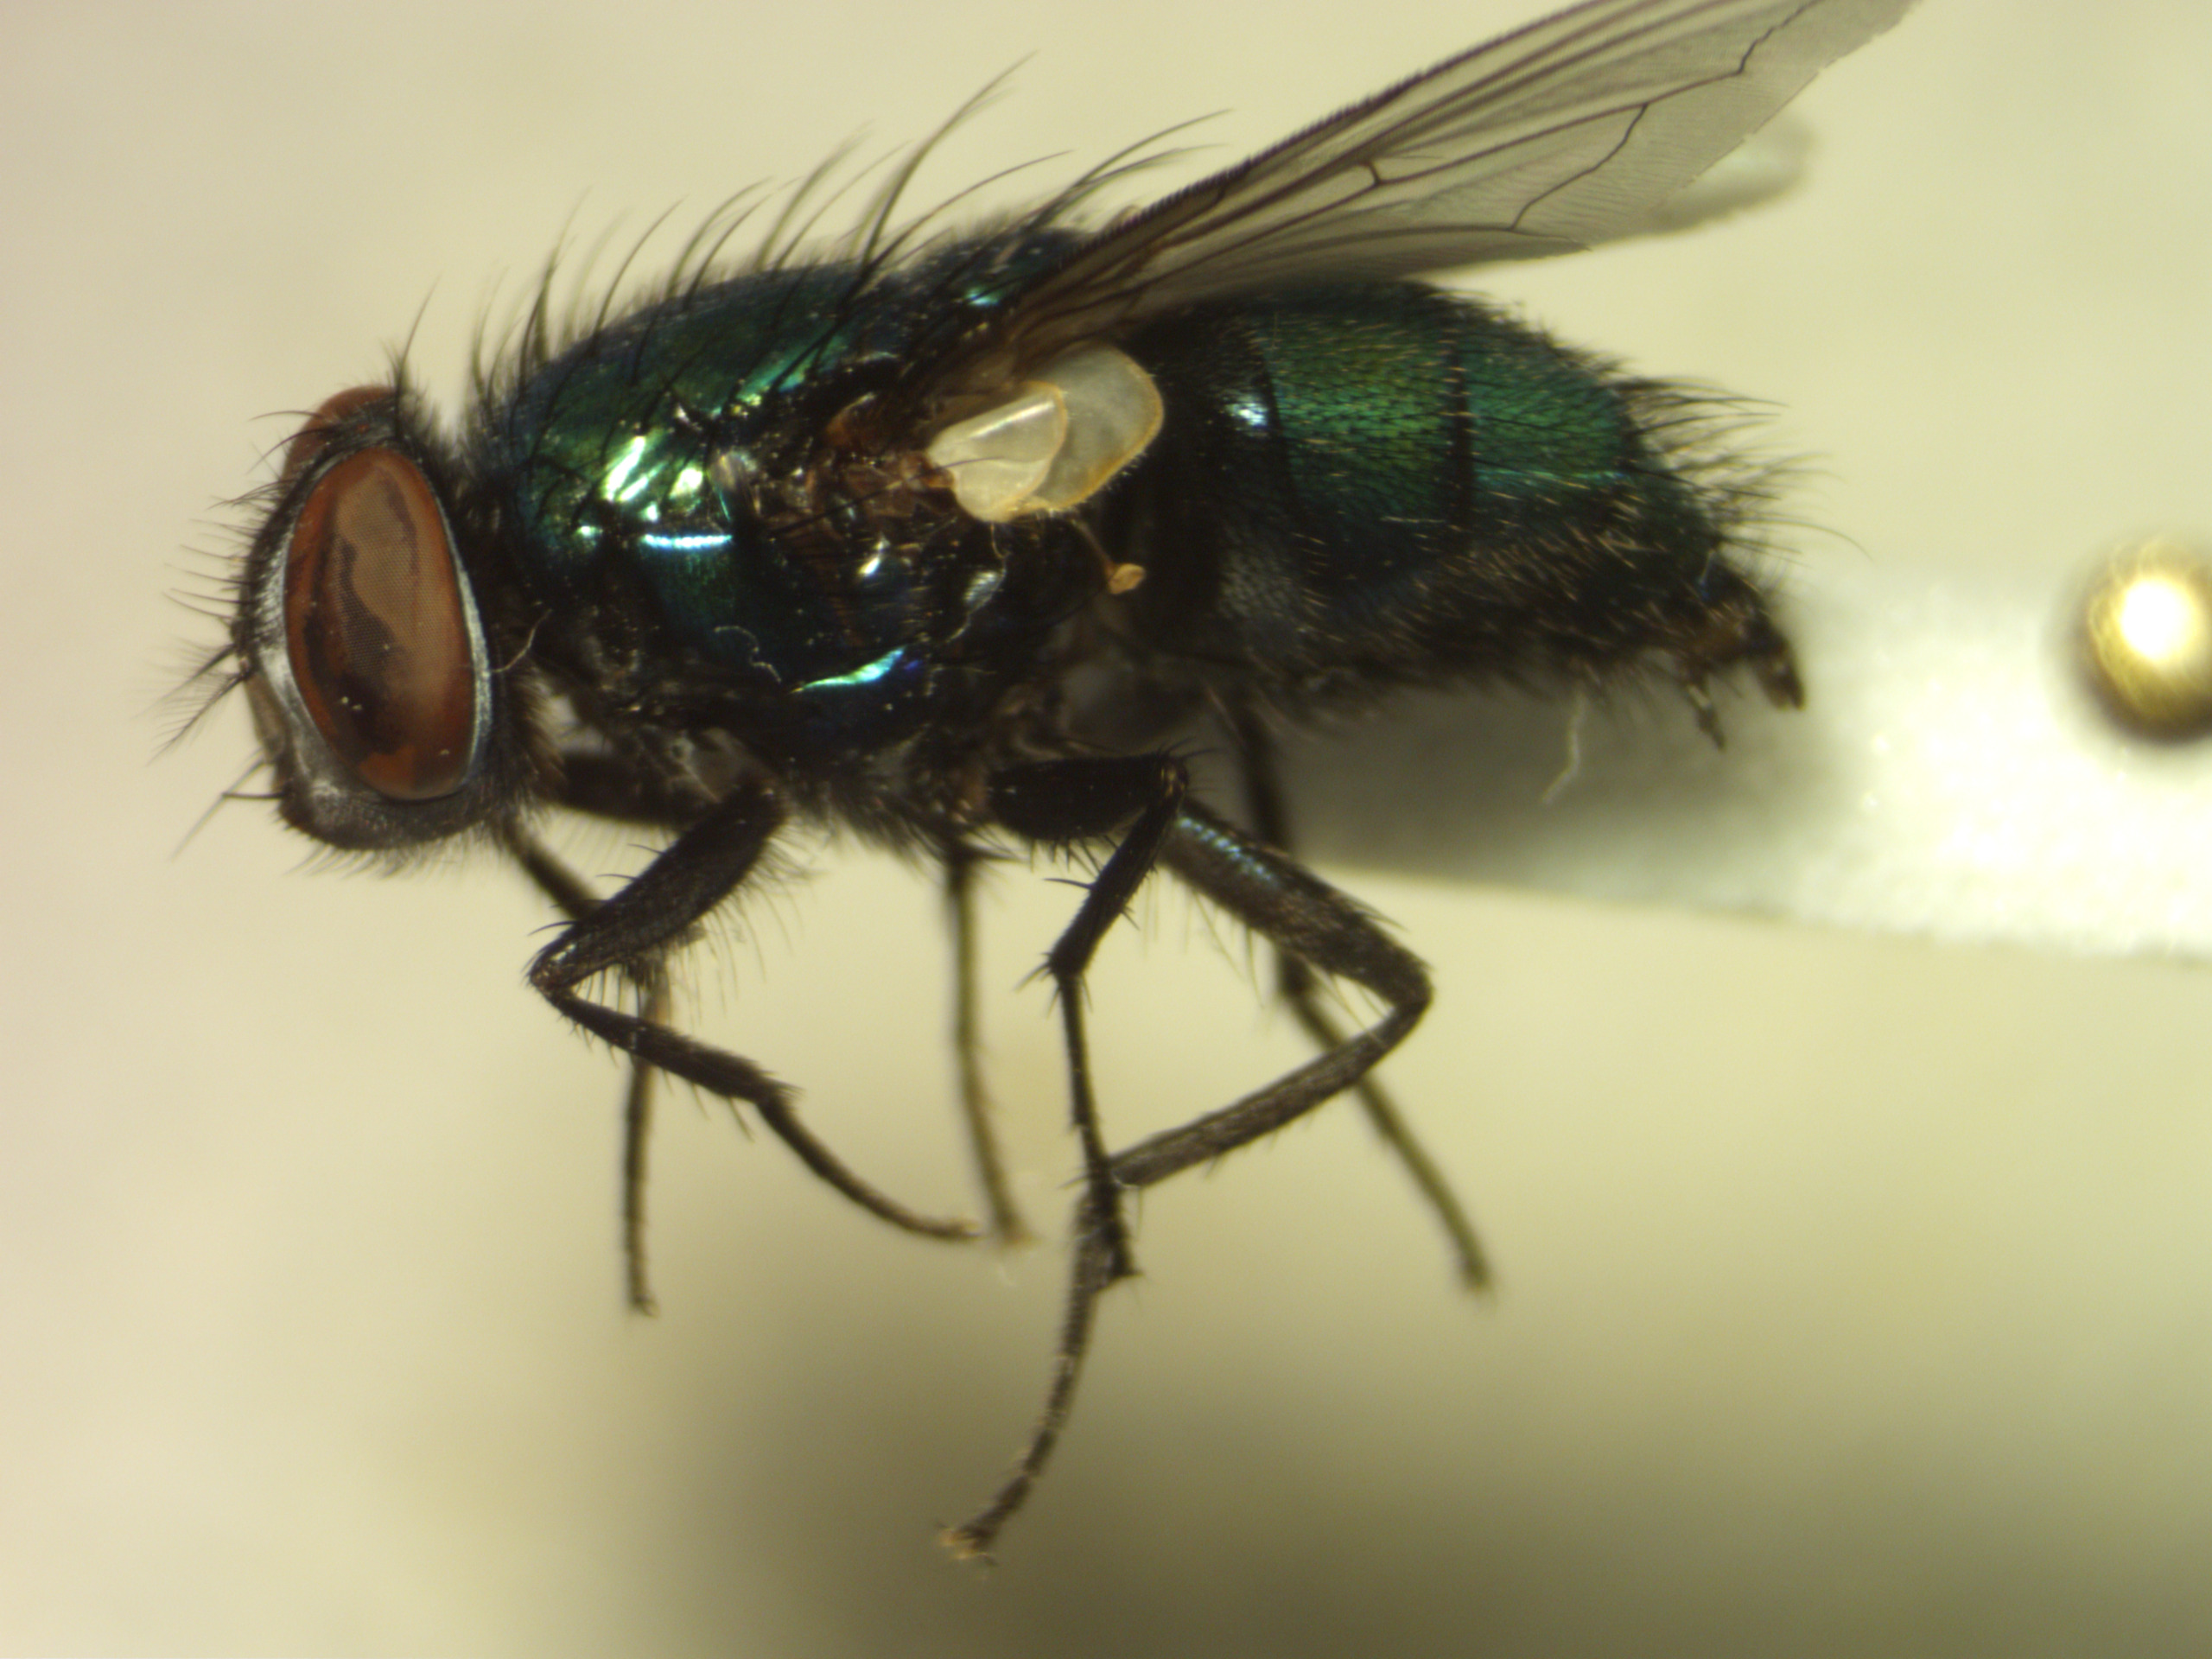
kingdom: Animalia
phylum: Arthropoda
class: Insecta
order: Diptera
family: Calliphoridae
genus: Lucilia
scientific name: Lucilia sericata
